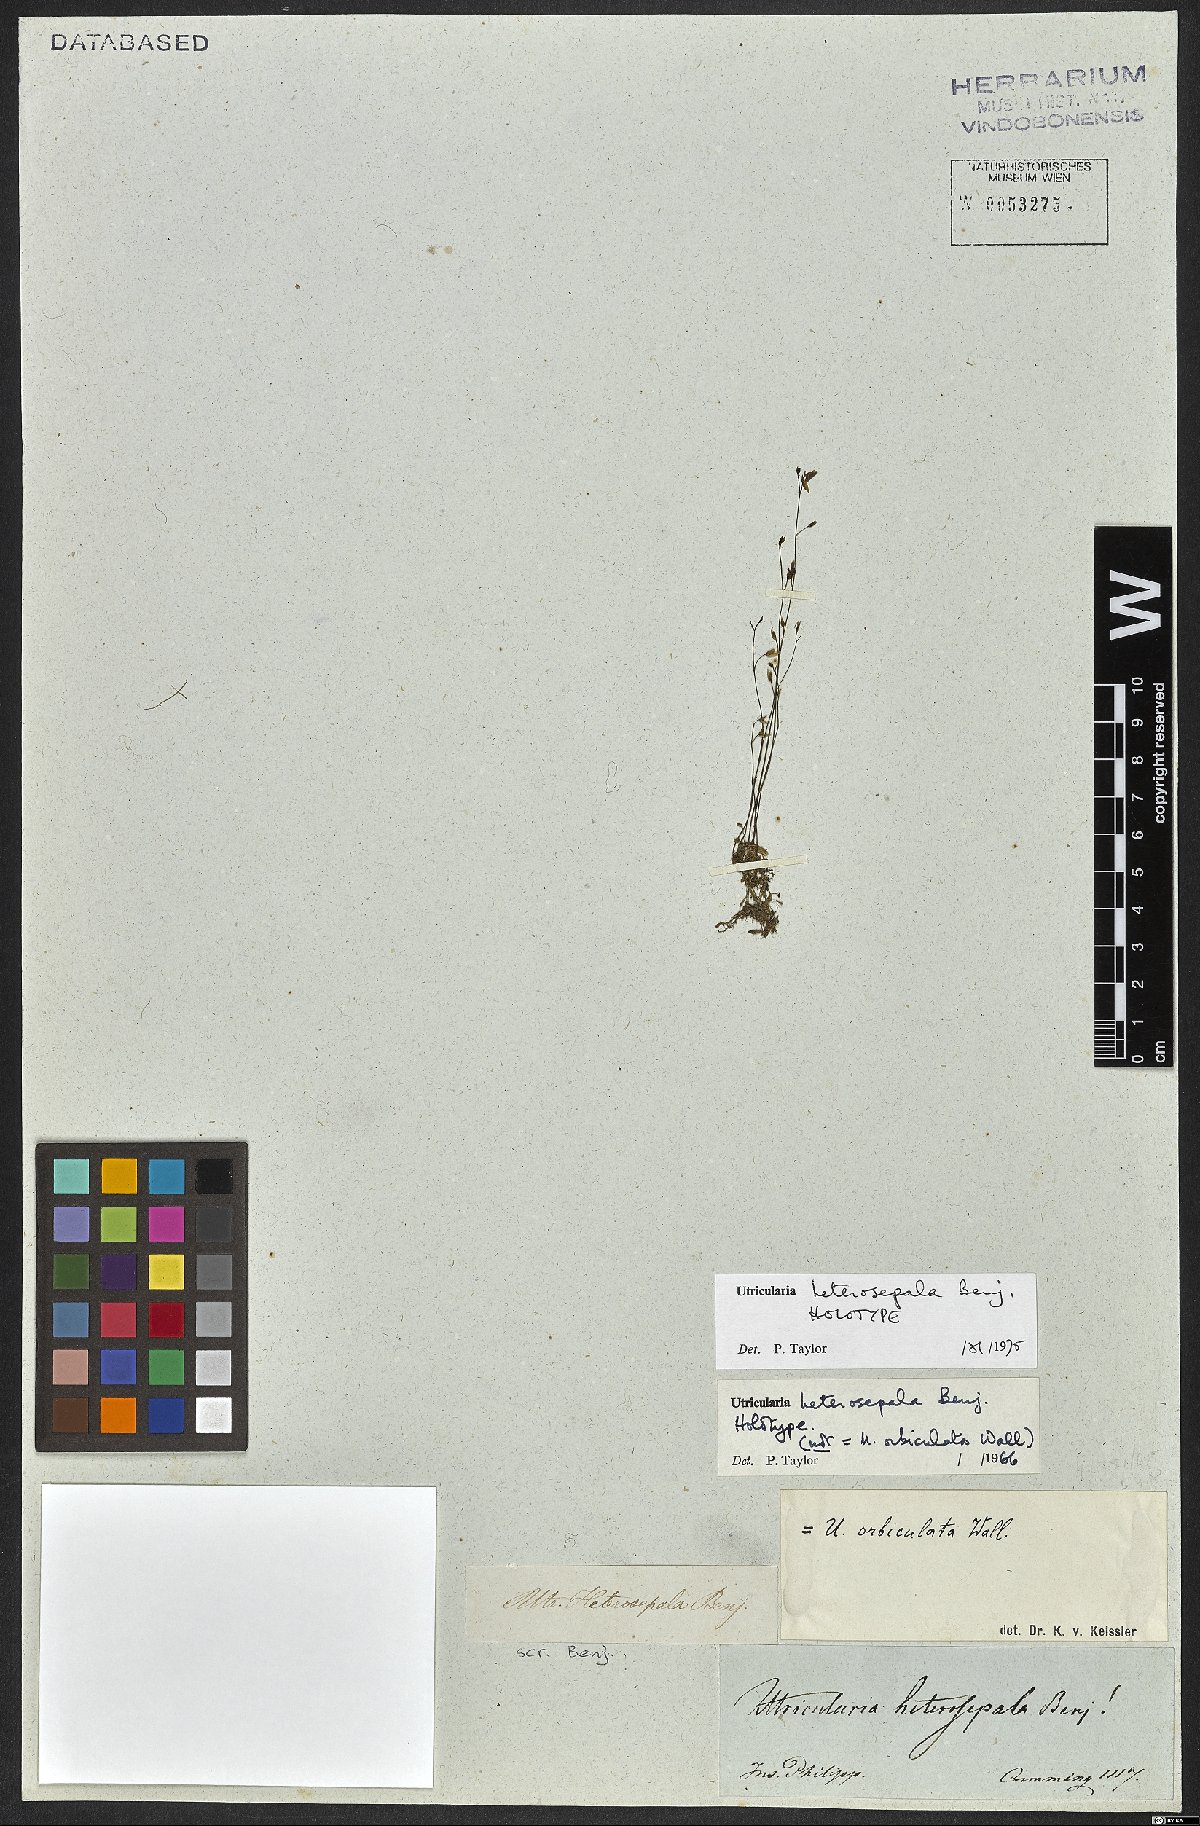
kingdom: Plantae
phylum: Tracheophyta
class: Magnoliopsida
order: Lamiales
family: Lentibulariaceae
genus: Utricularia
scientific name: Utricularia heterosepala
